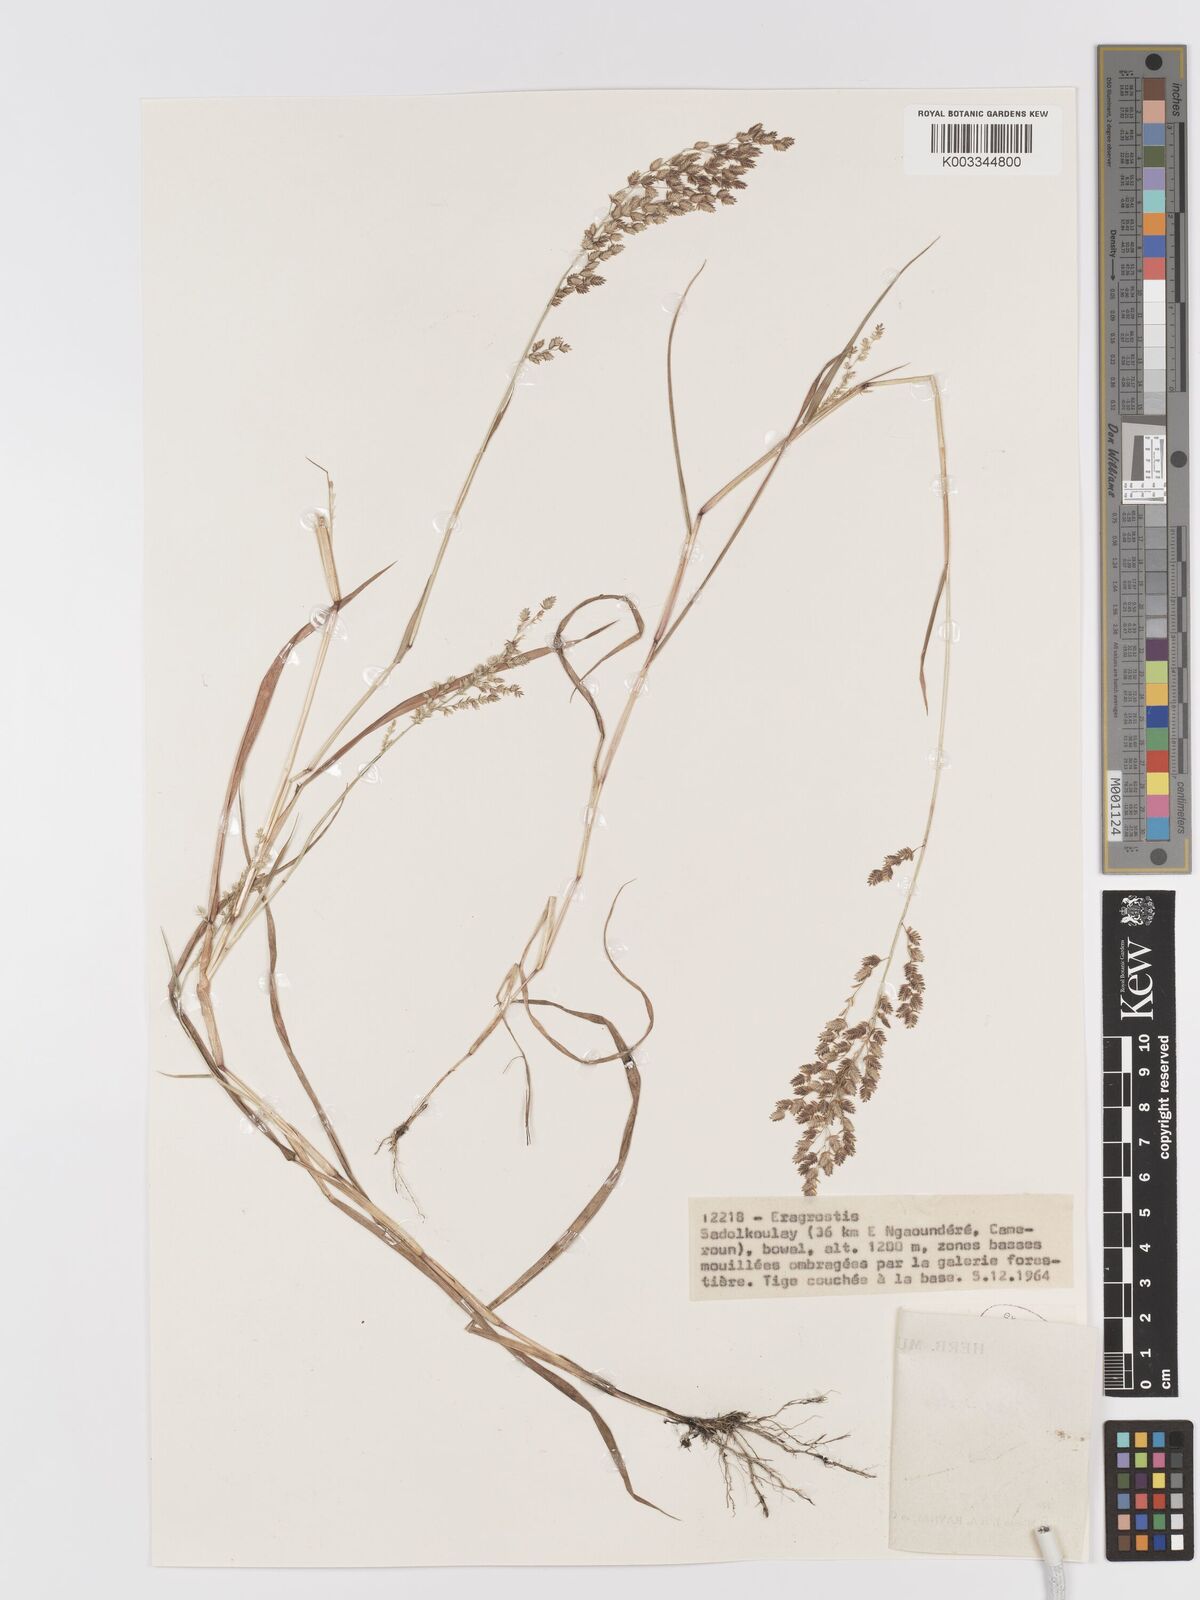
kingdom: Plantae
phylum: Tracheophyta
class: Liliopsida
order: Poales
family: Poaceae
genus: Eragrostis
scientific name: Eragrostis scotelliana
